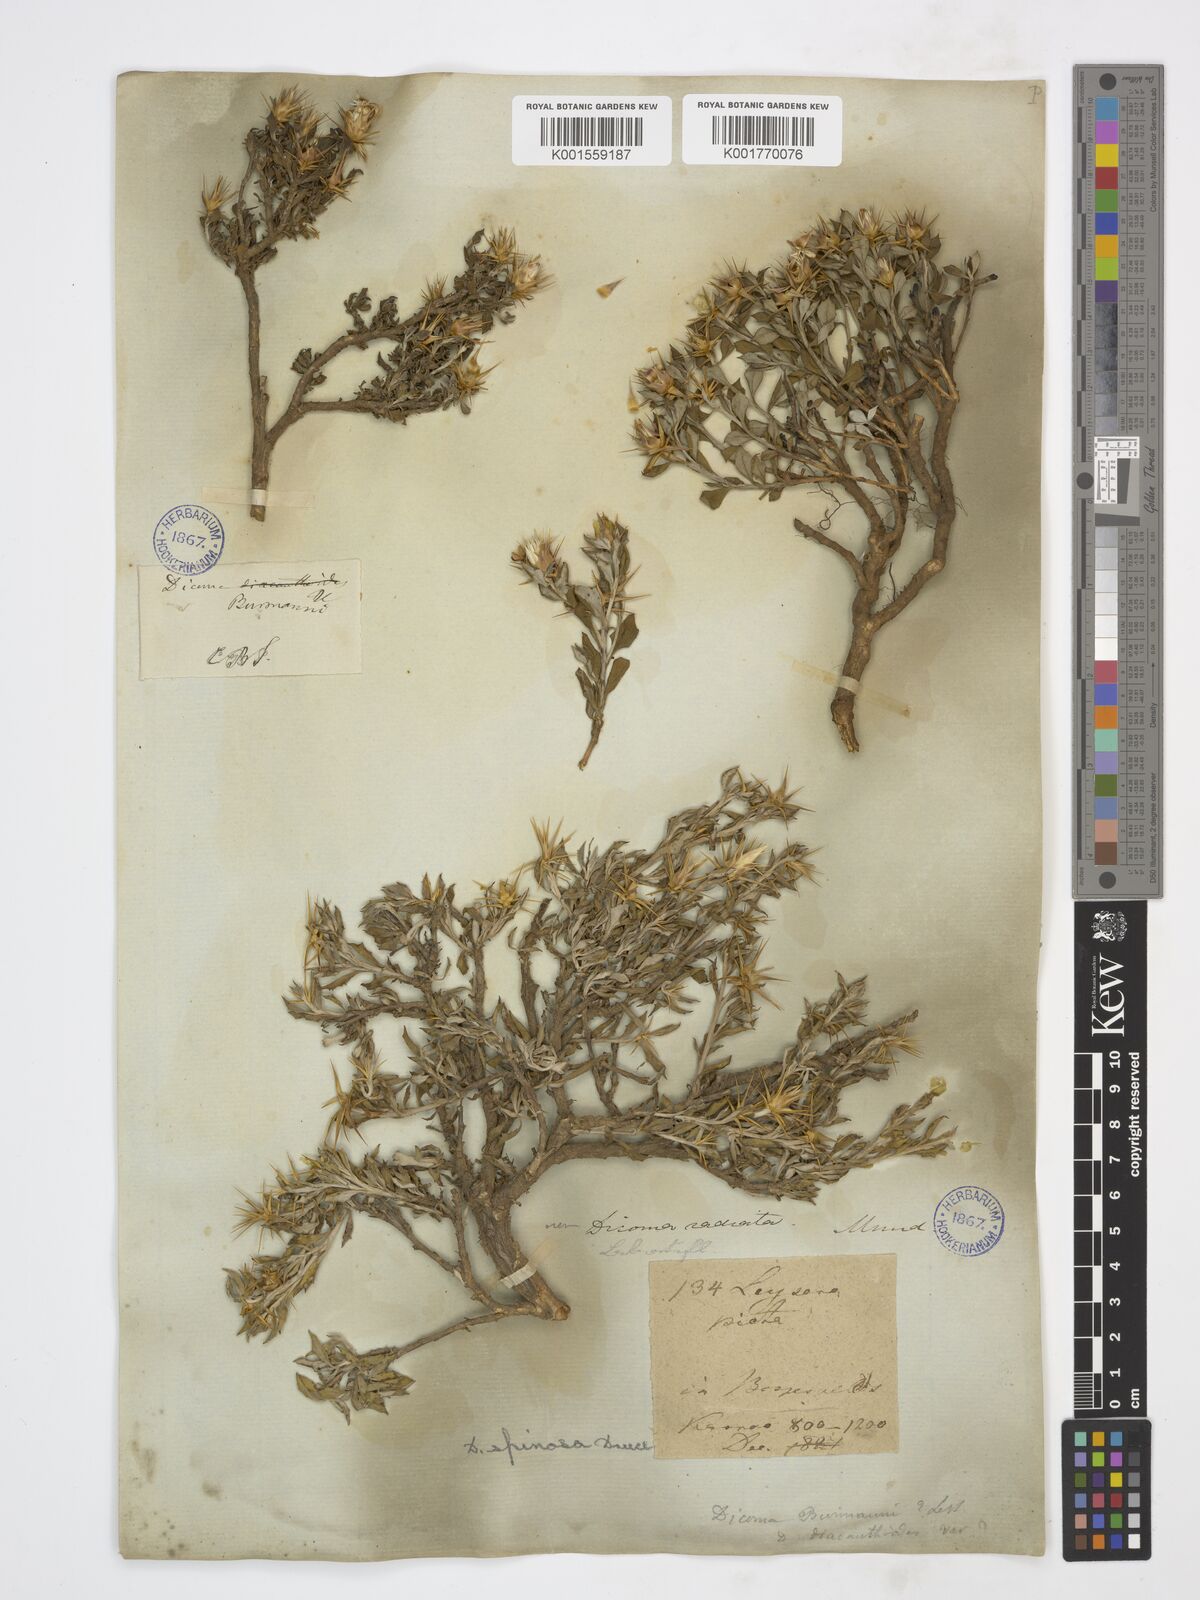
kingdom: Plantae
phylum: Tracheophyta
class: Magnoliopsida
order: Asterales
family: Asteraceae
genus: Macledium
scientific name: Macledium spinosum
